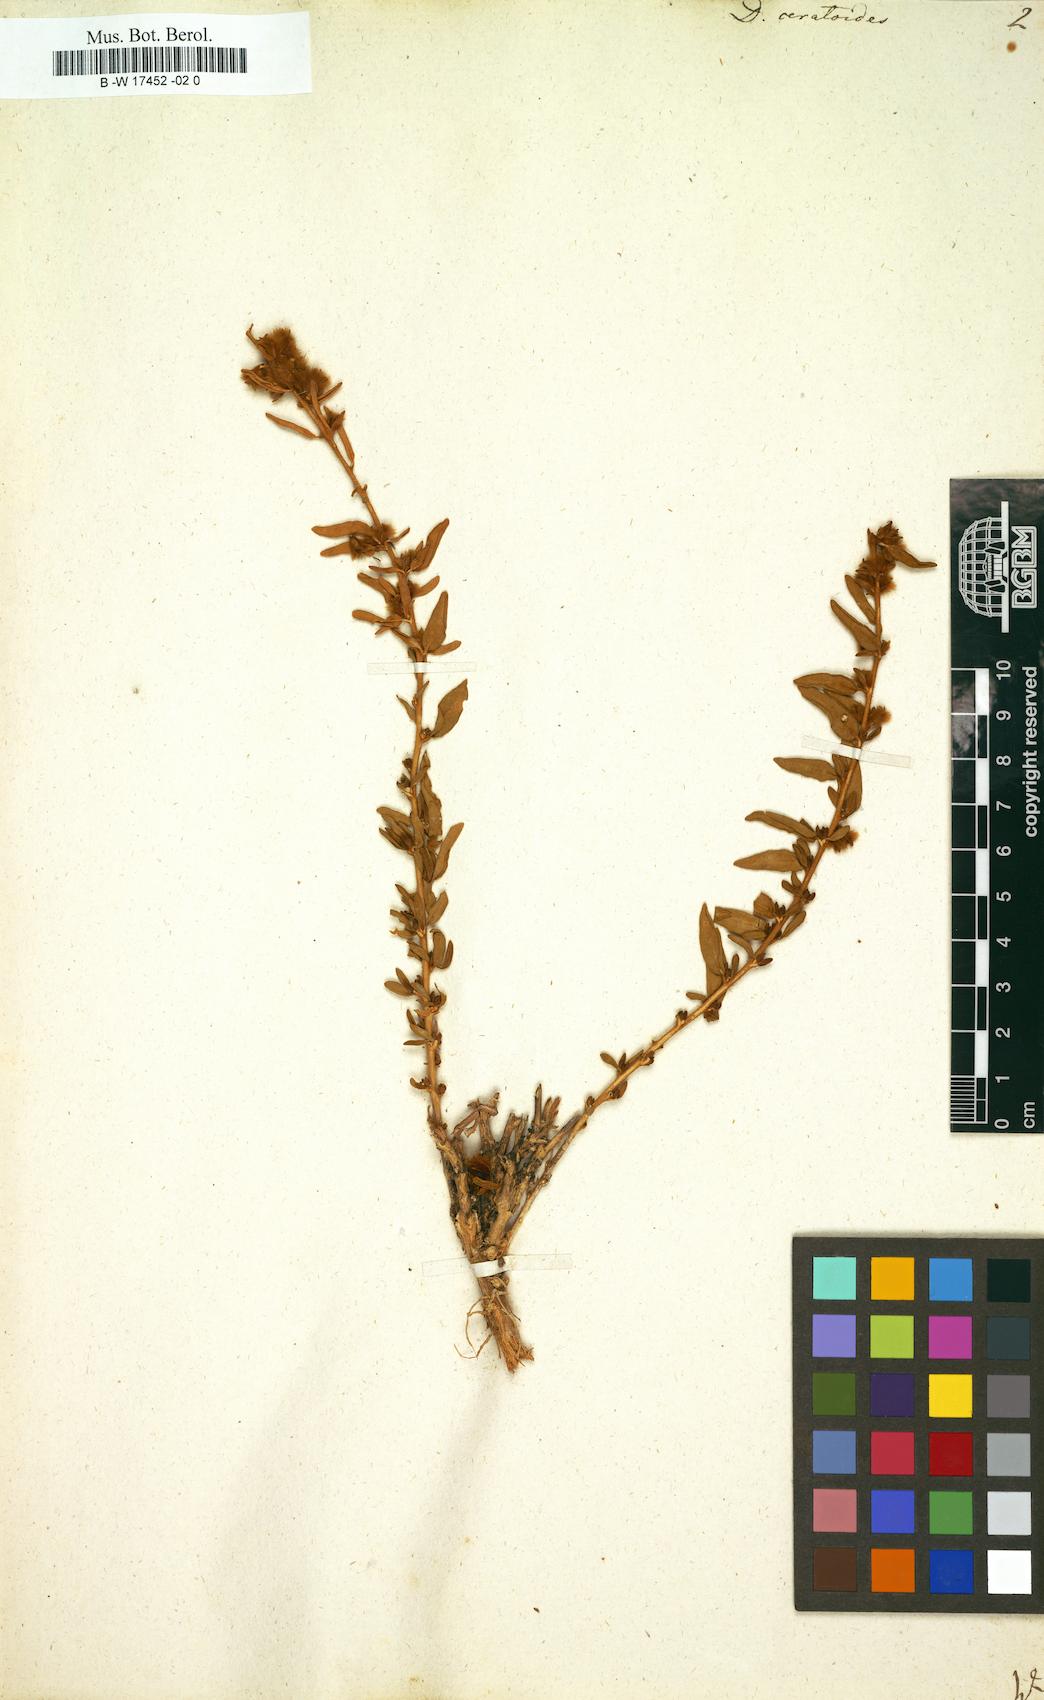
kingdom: Plantae
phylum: Tracheophyta
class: Magnoliopsida
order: Caryophyllales
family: Amaranthaceae
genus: Krascheninnikovia
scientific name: Krascheninnikovia ceratoides
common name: Pamirian winterfat
